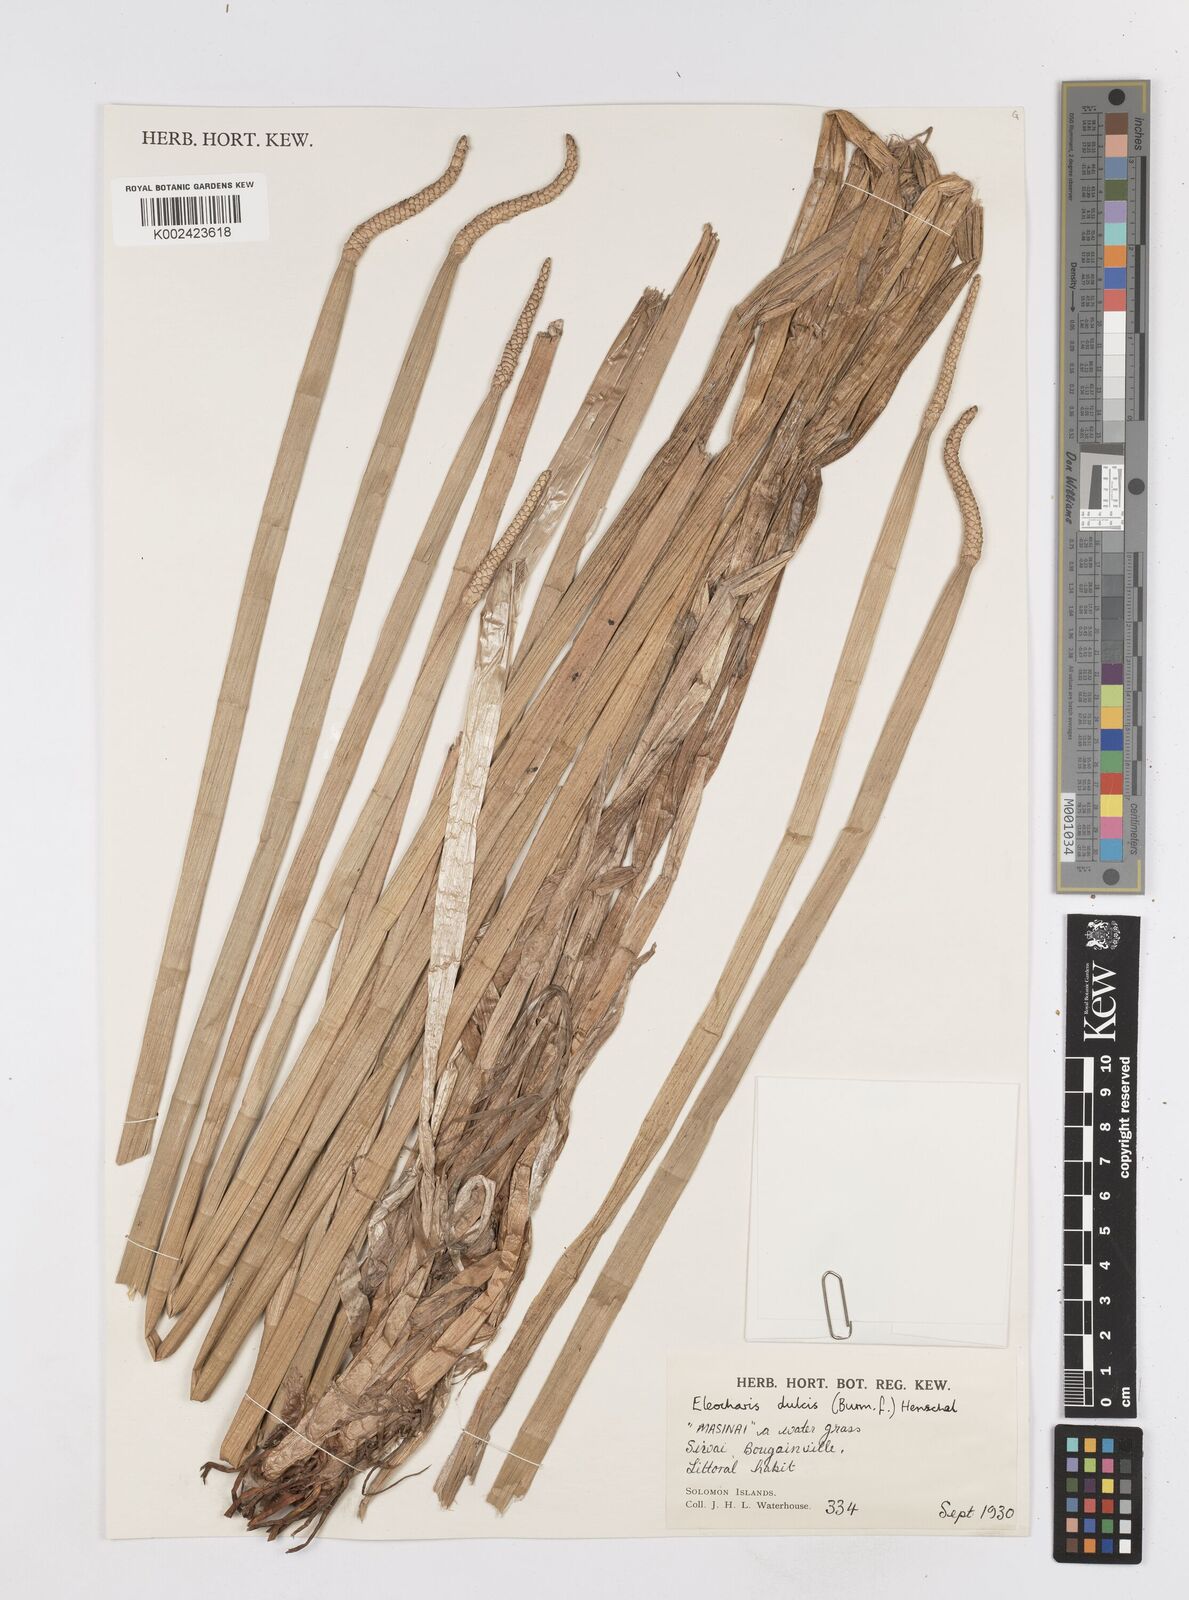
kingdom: Plantae
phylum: Tracheophyta
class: Liliopsida
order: Poales
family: Cyperaceae
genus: Eleocharis
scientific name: Eleocharis dulcis
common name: Chinese water chestnut
